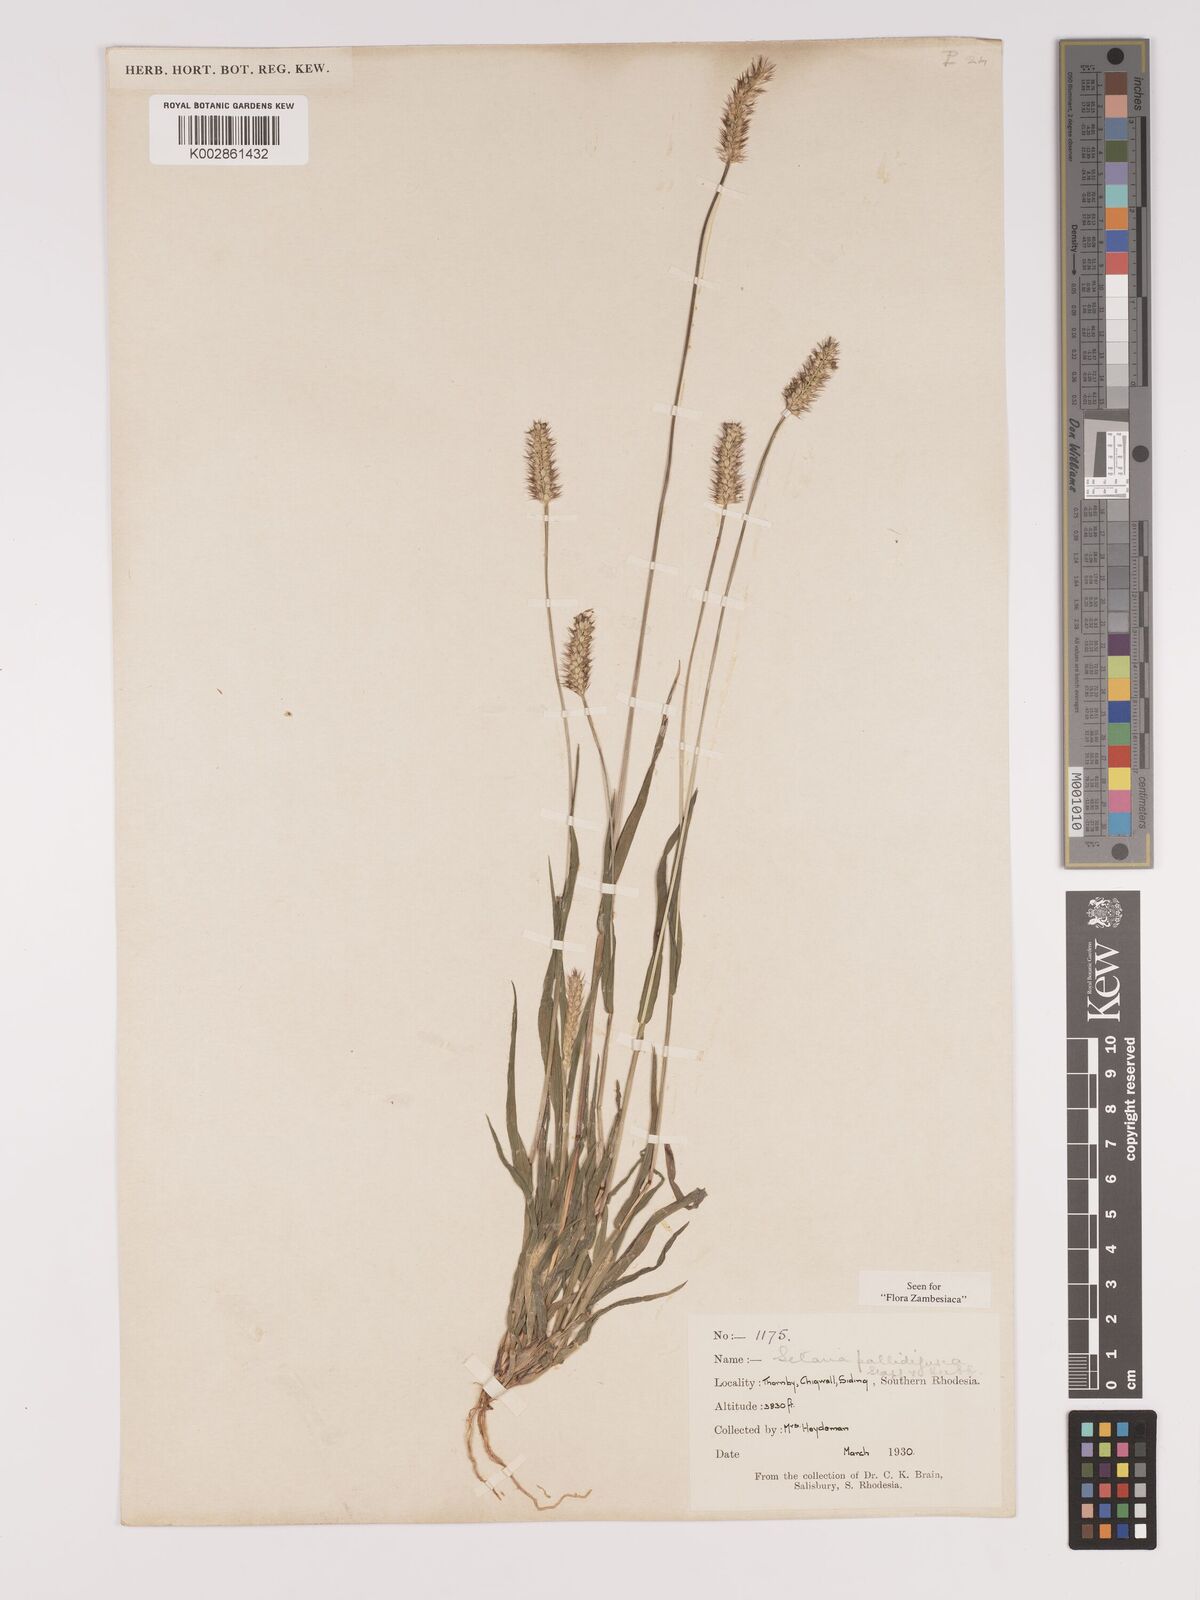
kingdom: Plantae
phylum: Tracheophyta
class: Liliopsida
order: Poales
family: Poaceae
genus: Setaria
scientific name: Setaria pumila
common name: Yellow bristle-grass
